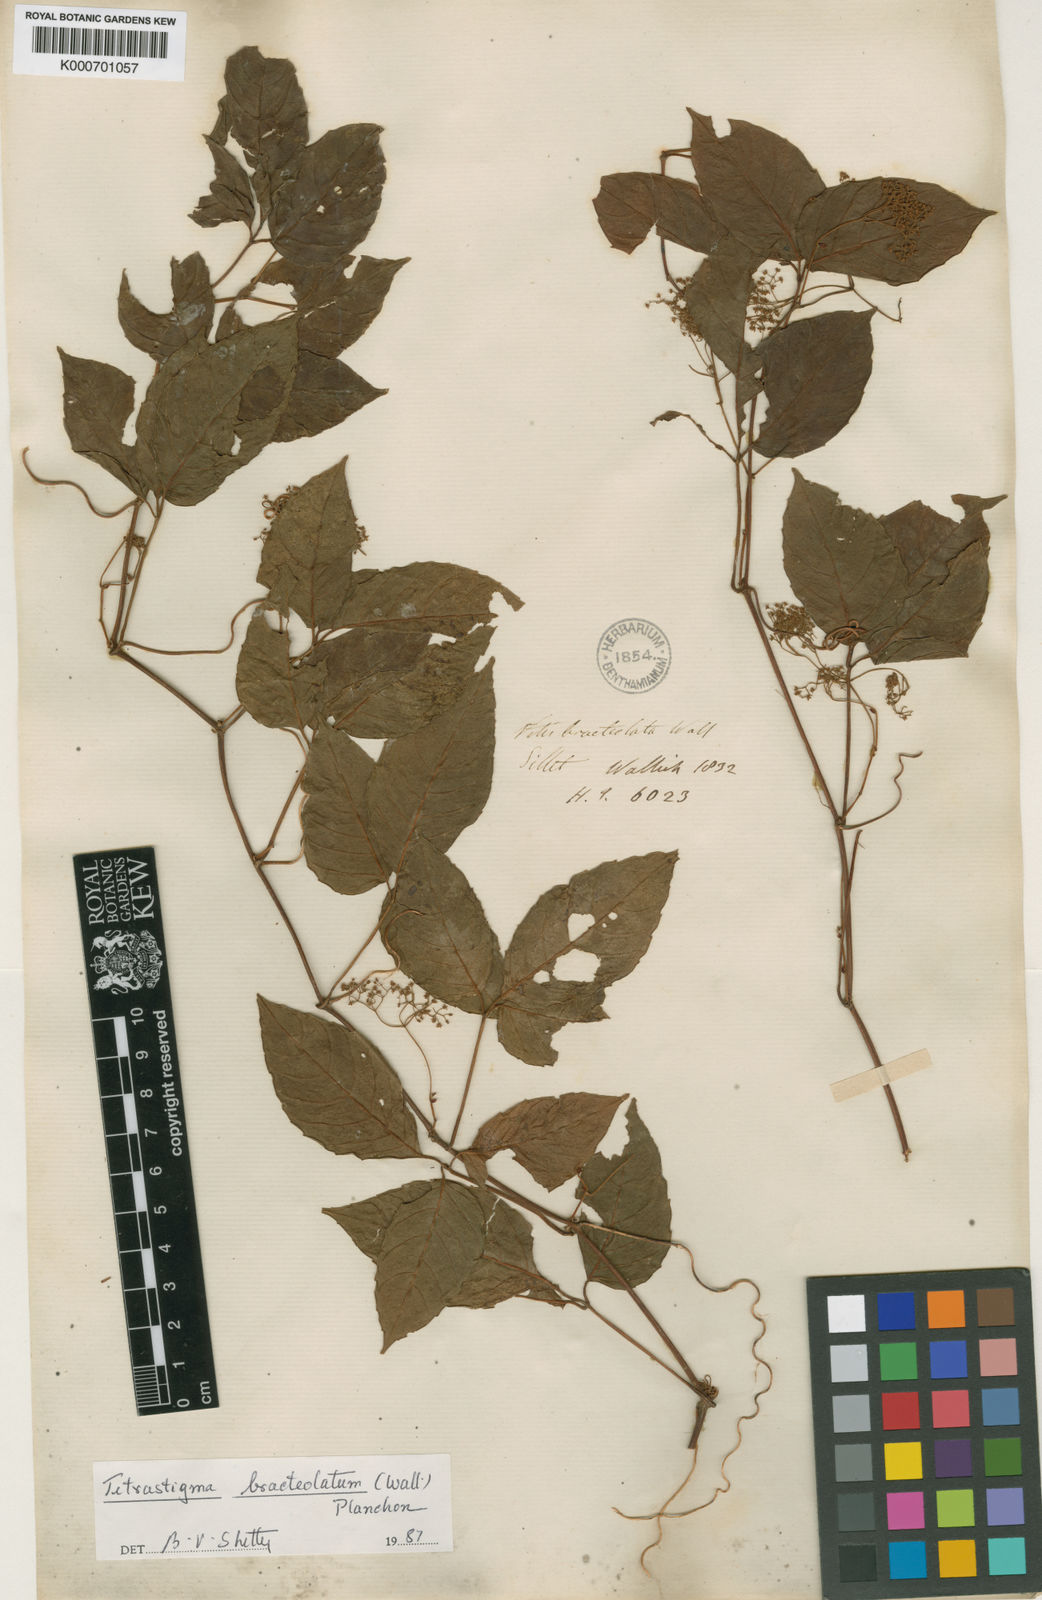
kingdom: Plantae
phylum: Tracheophyta
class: Magnoliopsida
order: Vitales
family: Vitaceae
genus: Tetrastigma
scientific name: Tetrastigma bracteolatum
